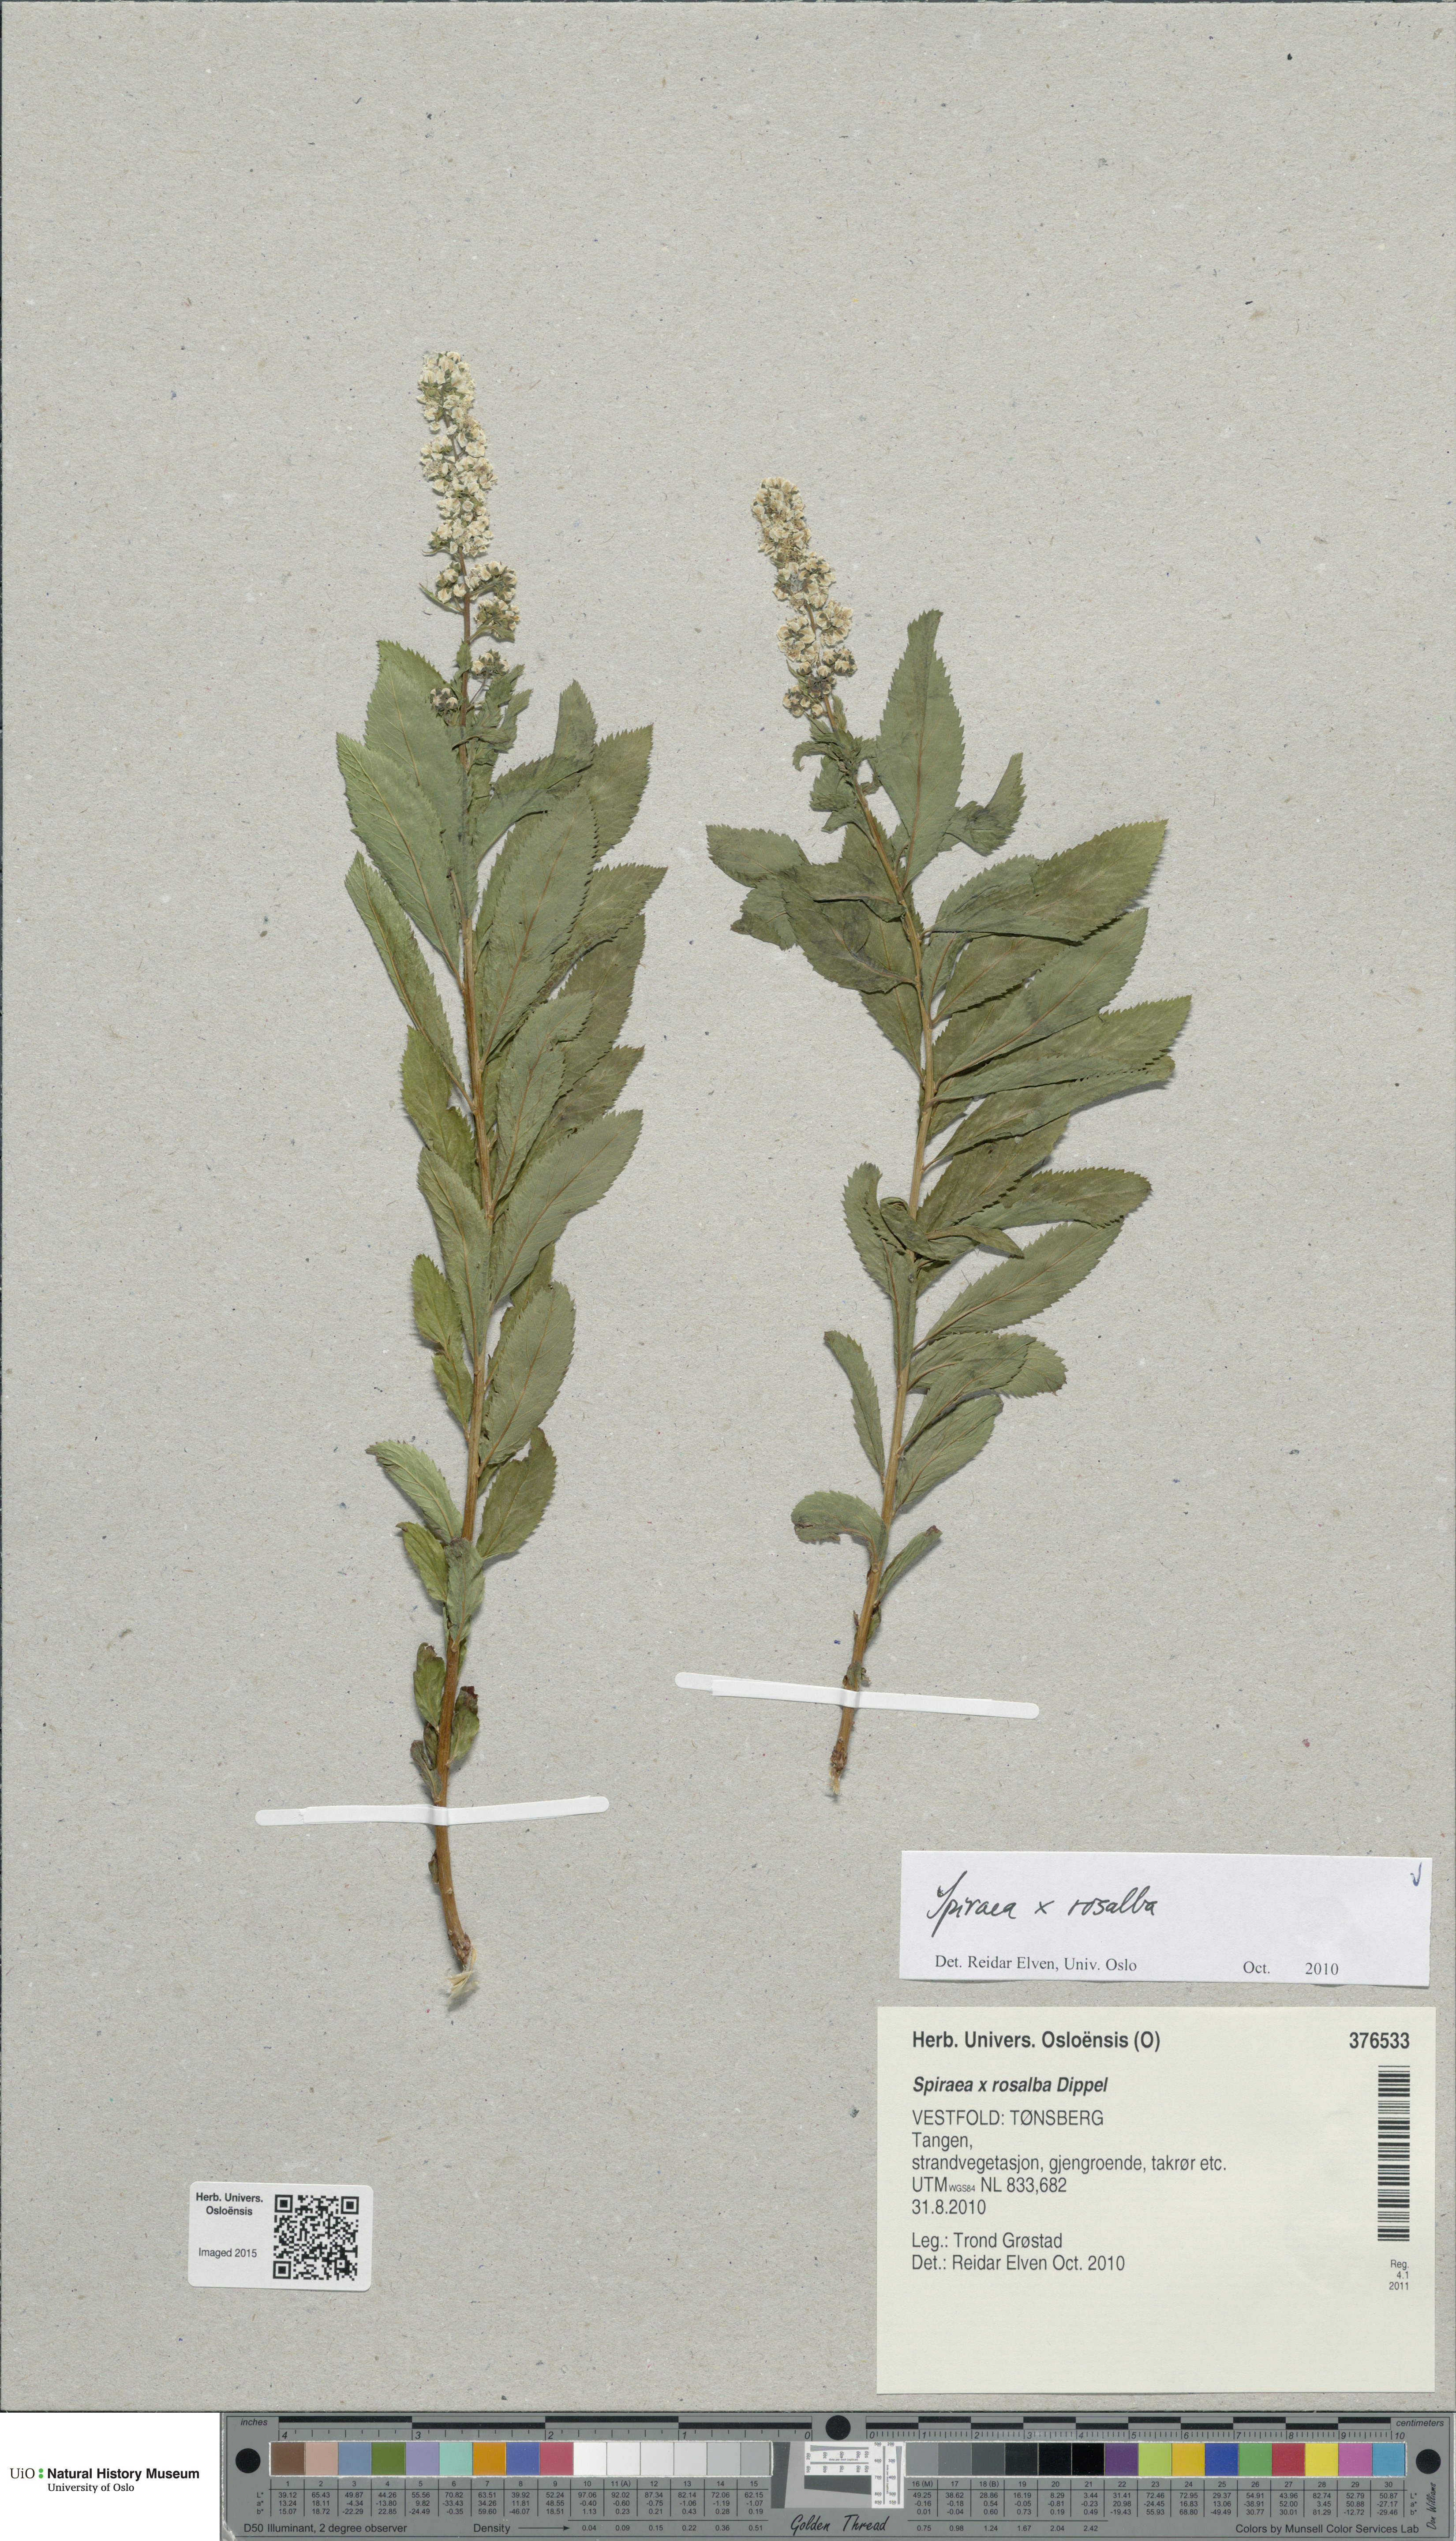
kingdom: Plantae
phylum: Tracheophyta
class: Magnoliopsida
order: Rosales
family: Rosaceae
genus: Spiraea
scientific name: Spiraea rosalba
